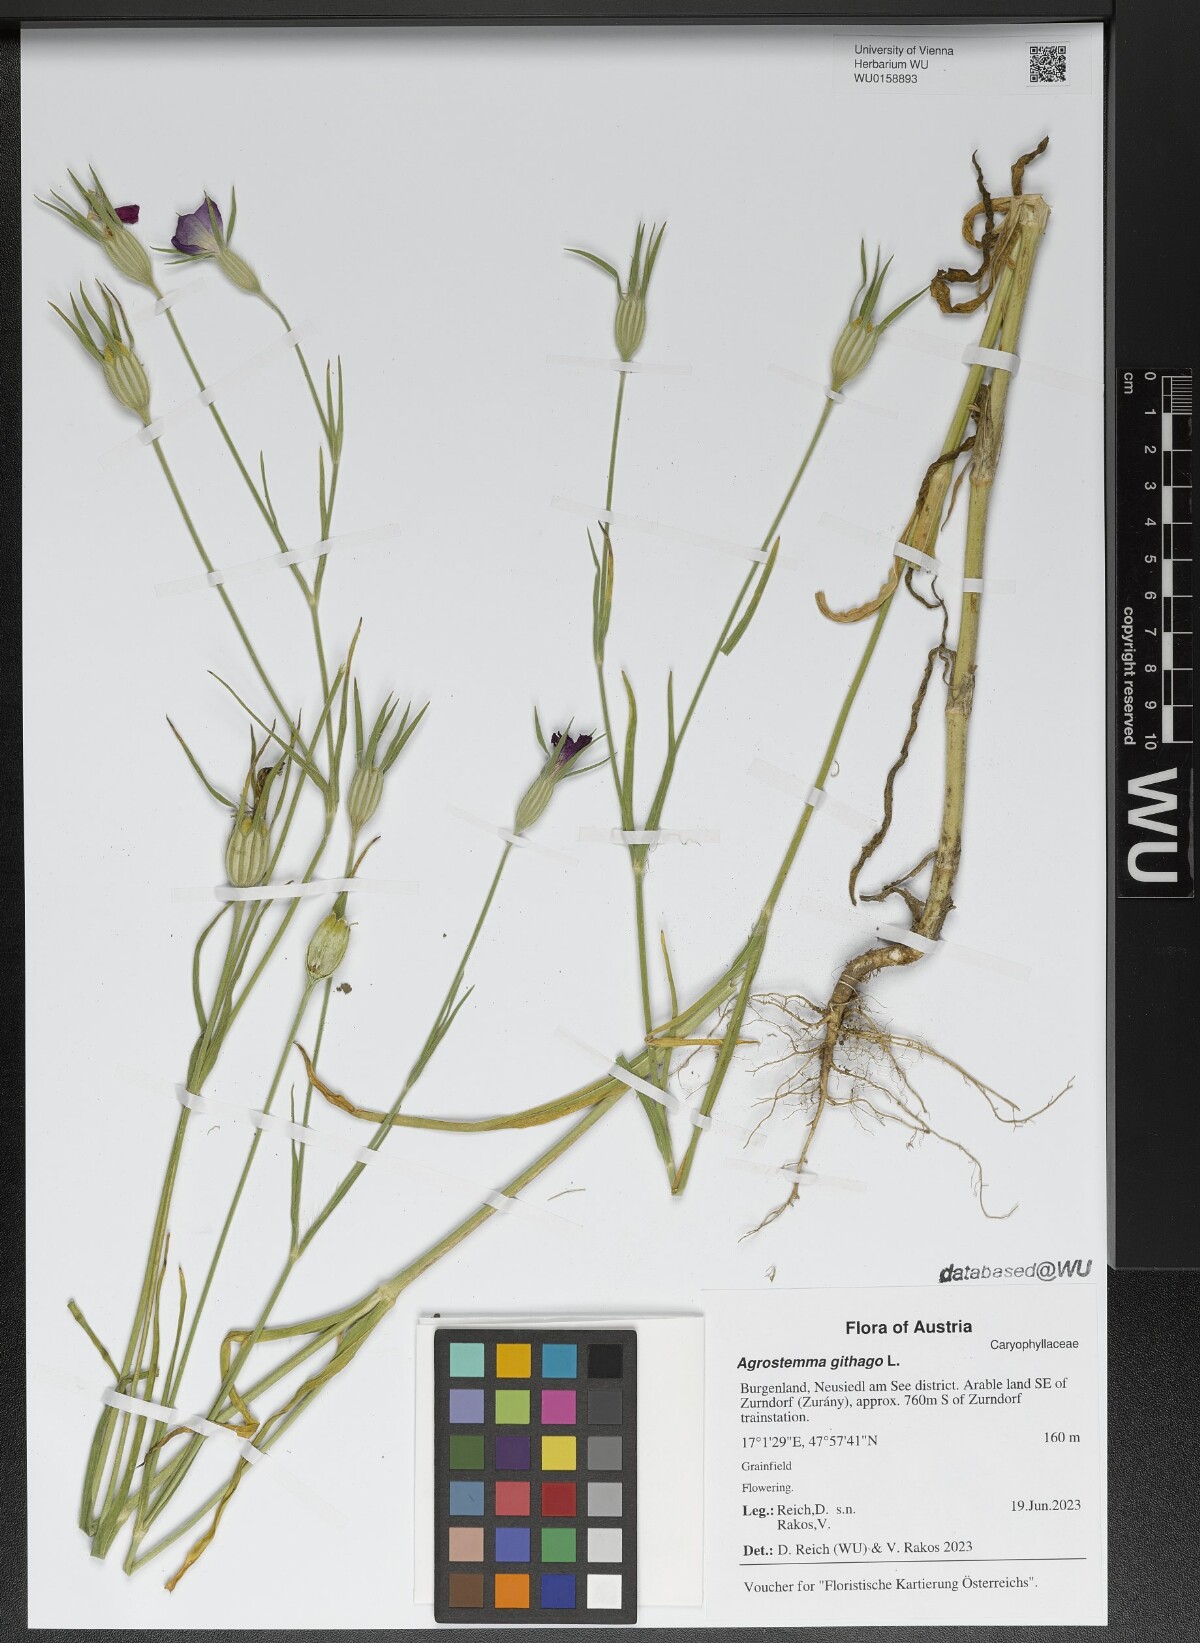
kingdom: Plantae
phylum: Tracheophyta
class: Magnoliopsida
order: Caryophyllales
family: Caryophyllaceae
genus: Agrostemma
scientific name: Agrostemma githago
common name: Common corncockle
